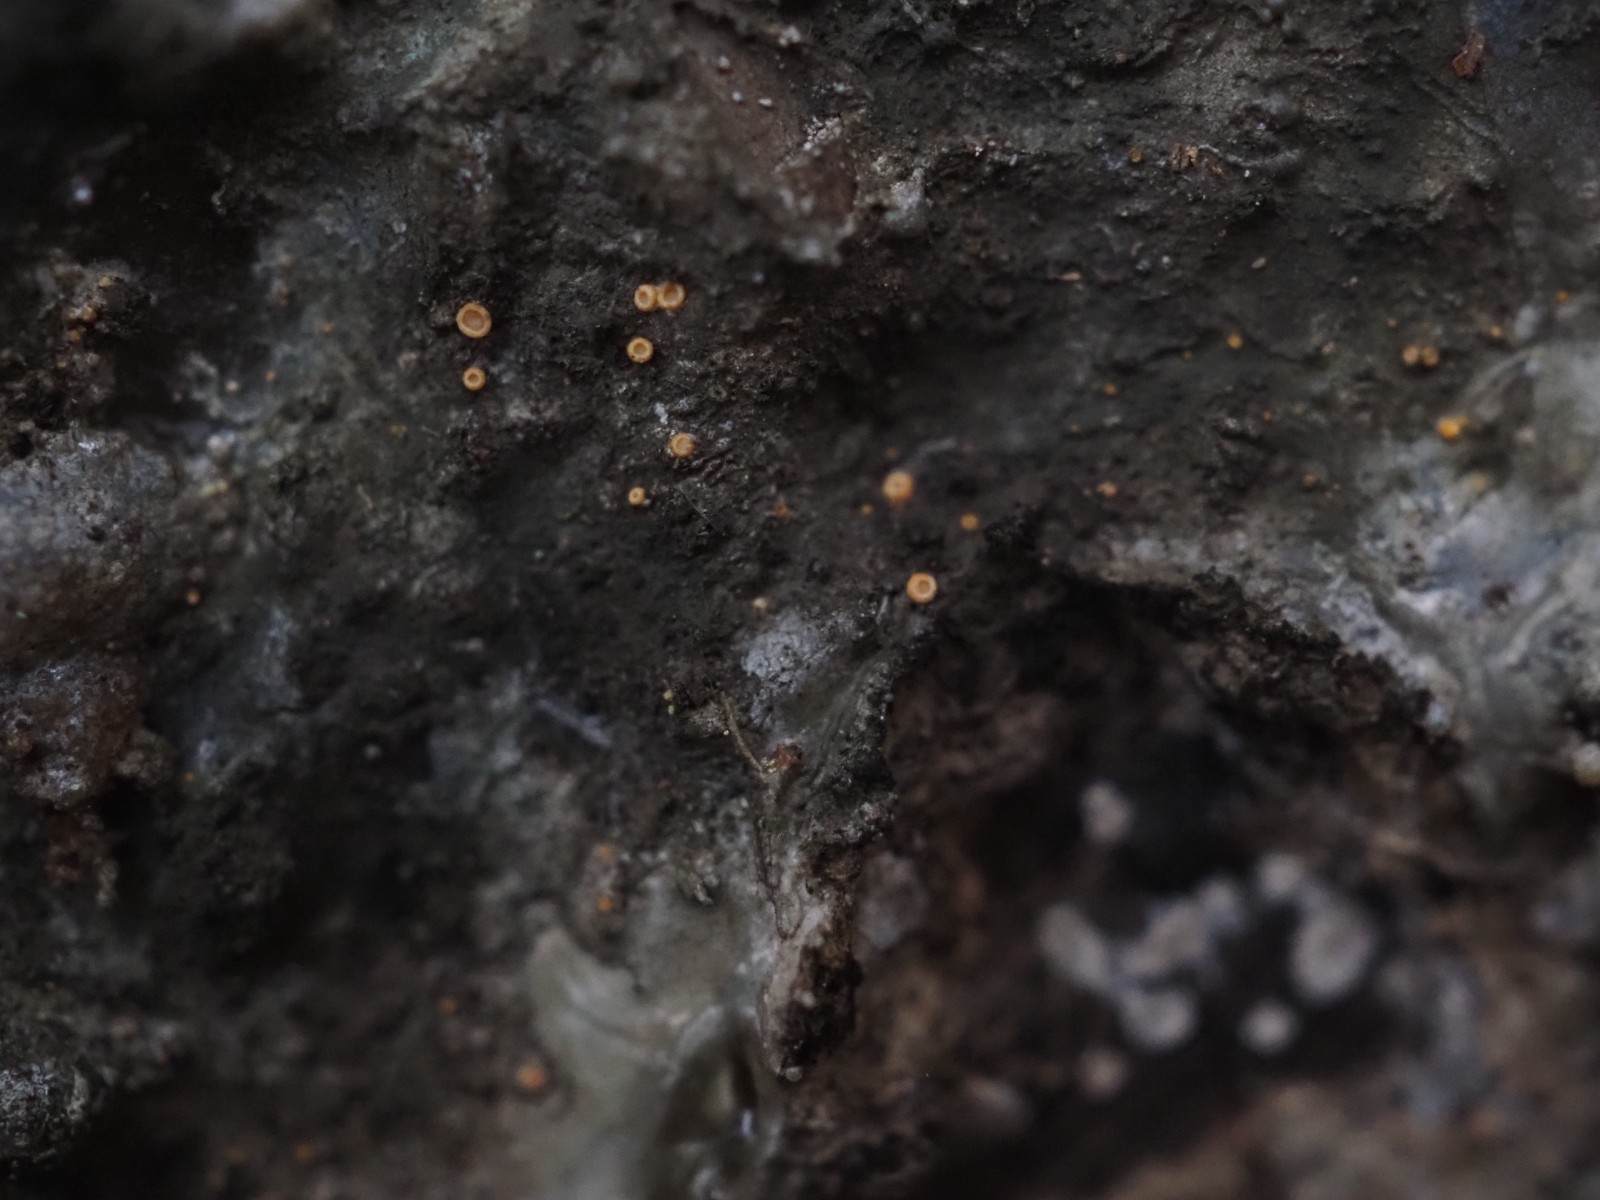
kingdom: Fungi
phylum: Ascomycota
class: Sareomycetes
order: Sareales
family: Sareaceae
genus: Sarea
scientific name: Sarea resinae
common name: orangegul harpiksskive
